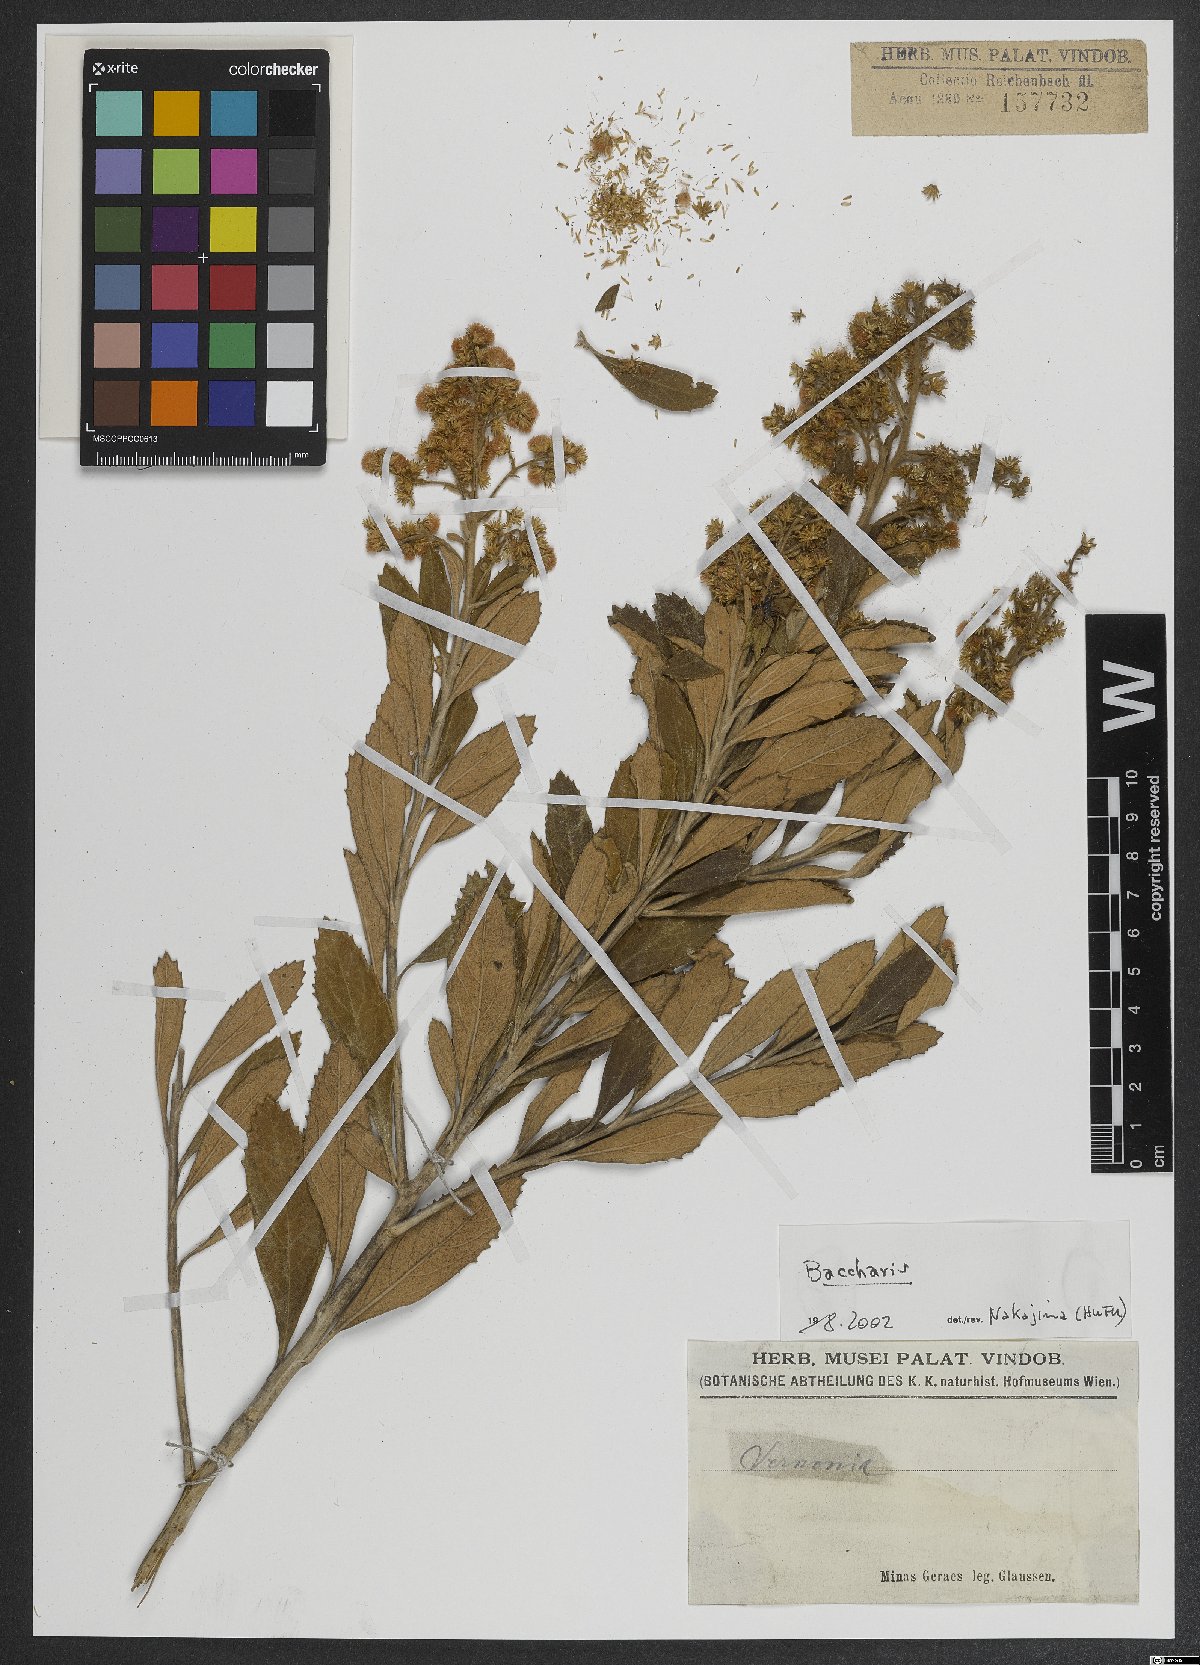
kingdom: Plantae
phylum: Tracheophyta
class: Magnoliopsida
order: Asterales
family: Asteraceae
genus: Baccharis
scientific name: Baccharis
